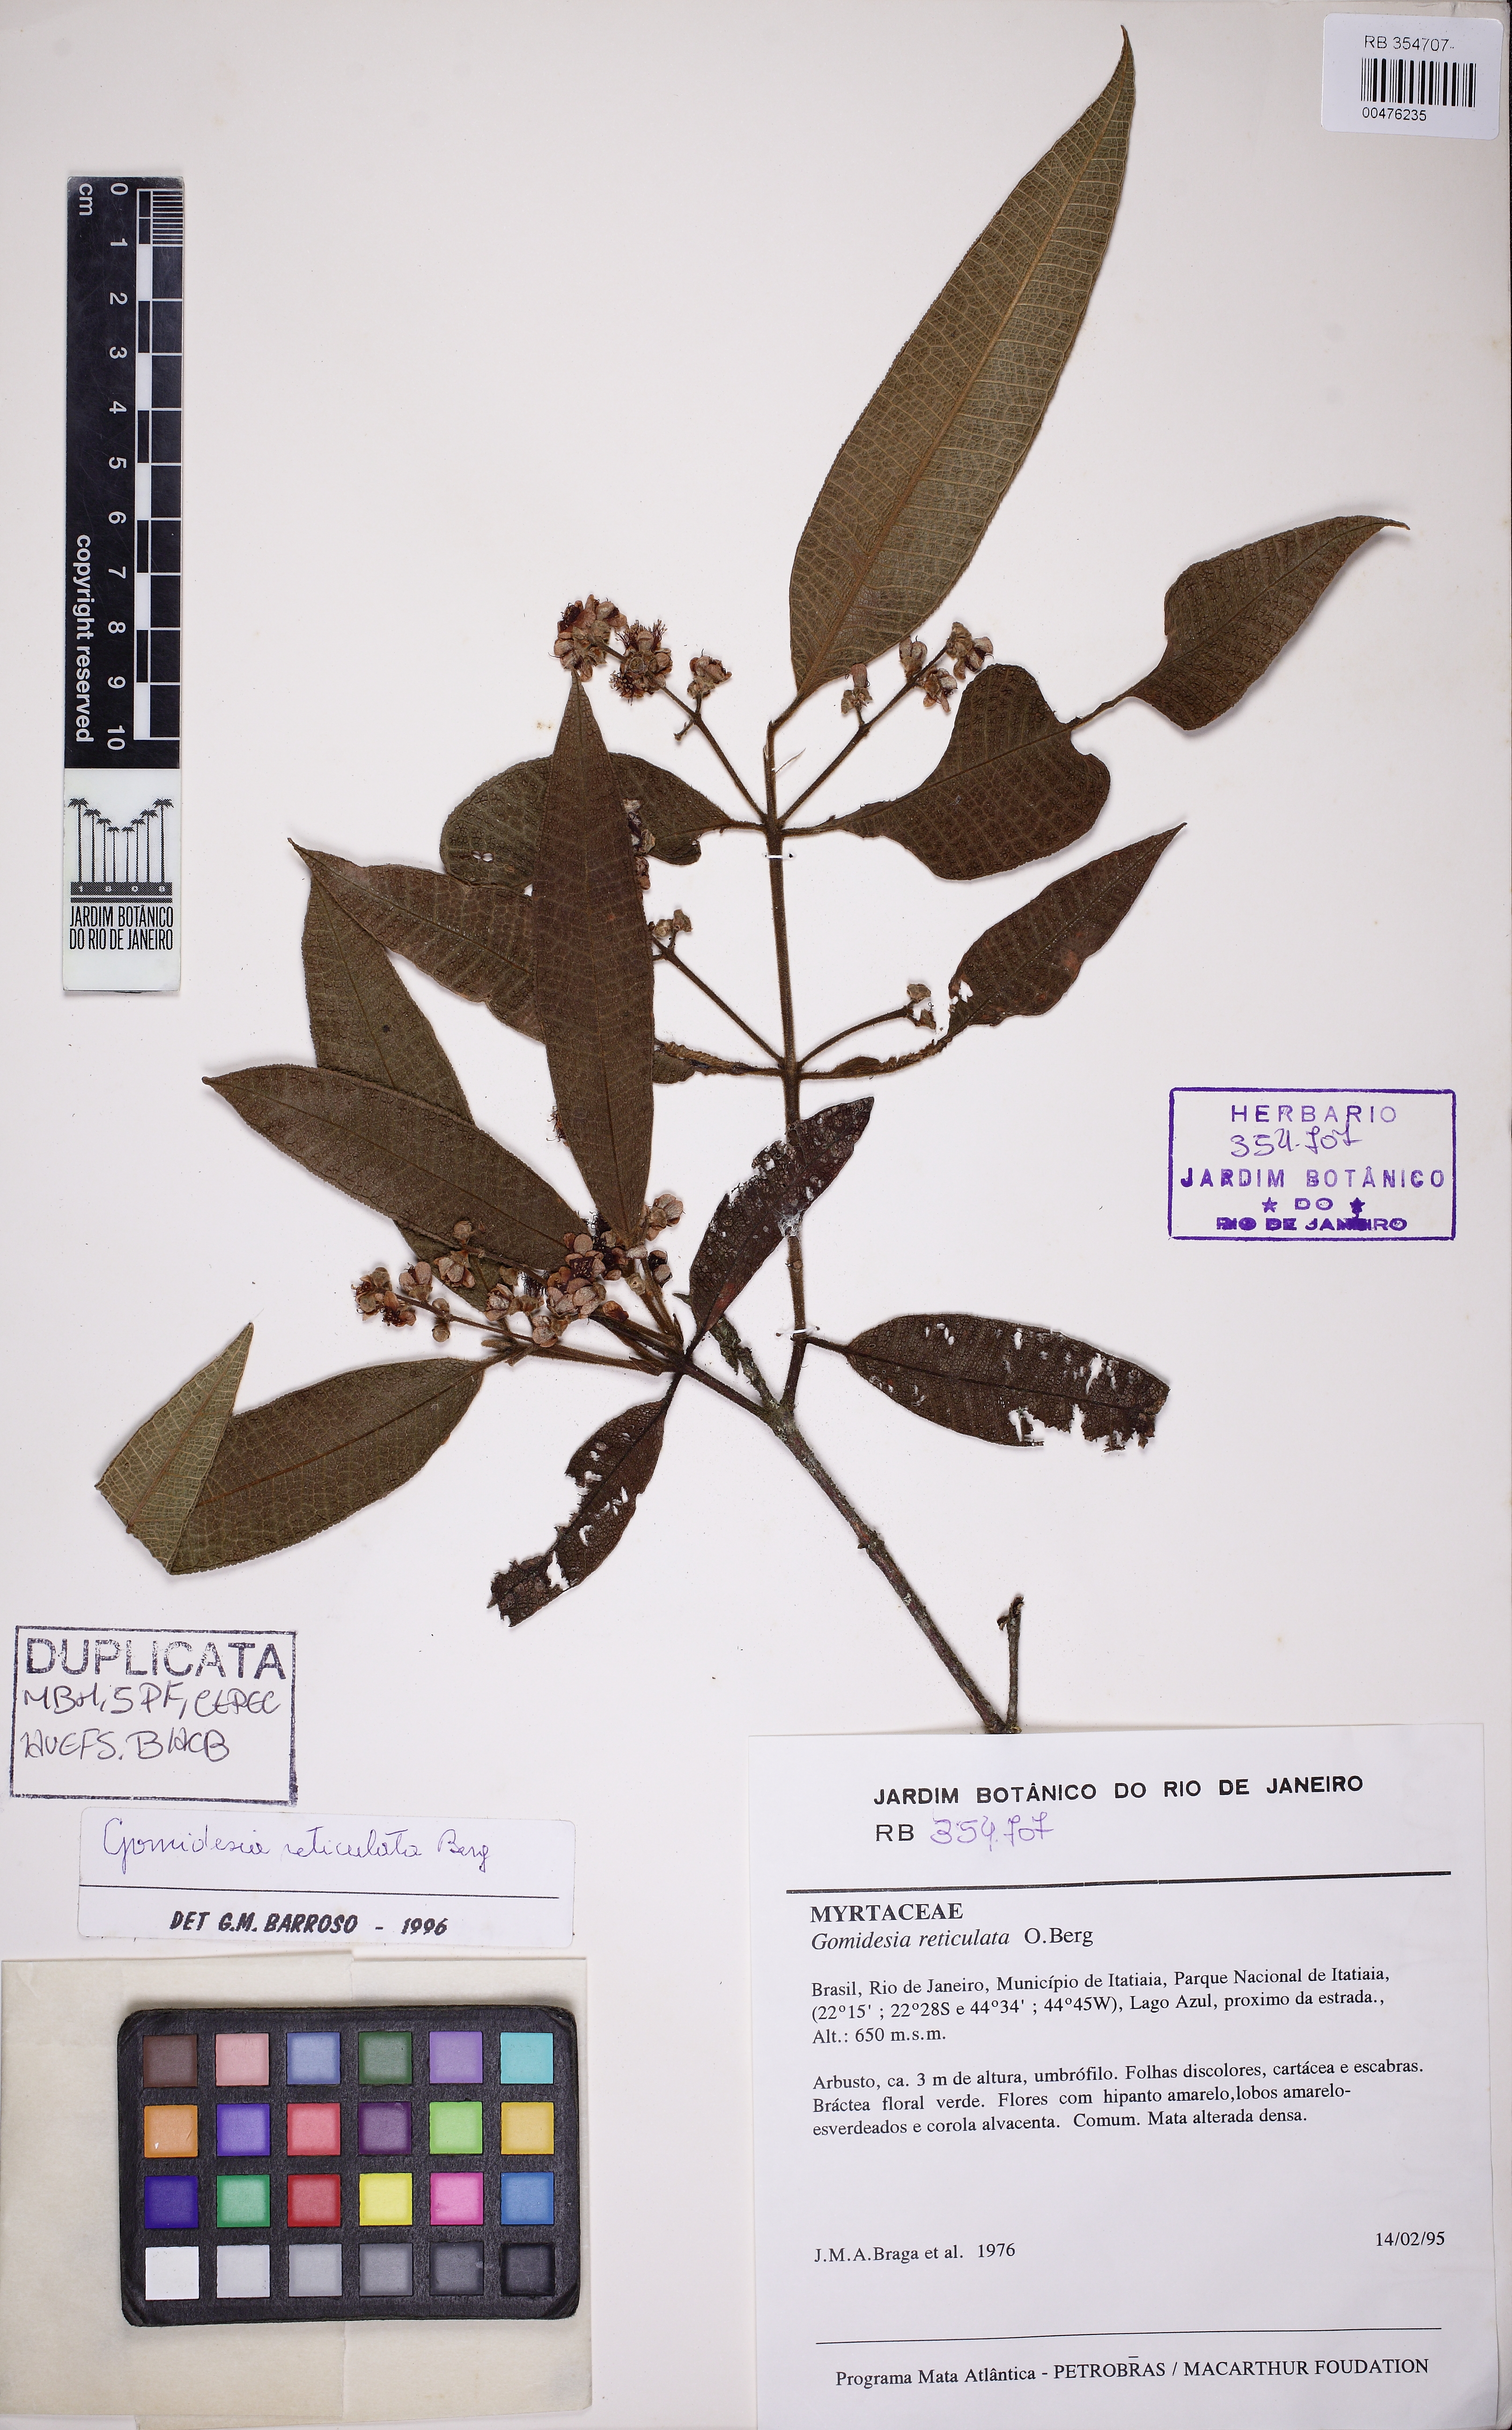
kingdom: Plantae
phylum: Tracheophyta
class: Magnoliopsida
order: Myrtales
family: Myrtaceae
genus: Myrcia
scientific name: Myrcia reticulata
